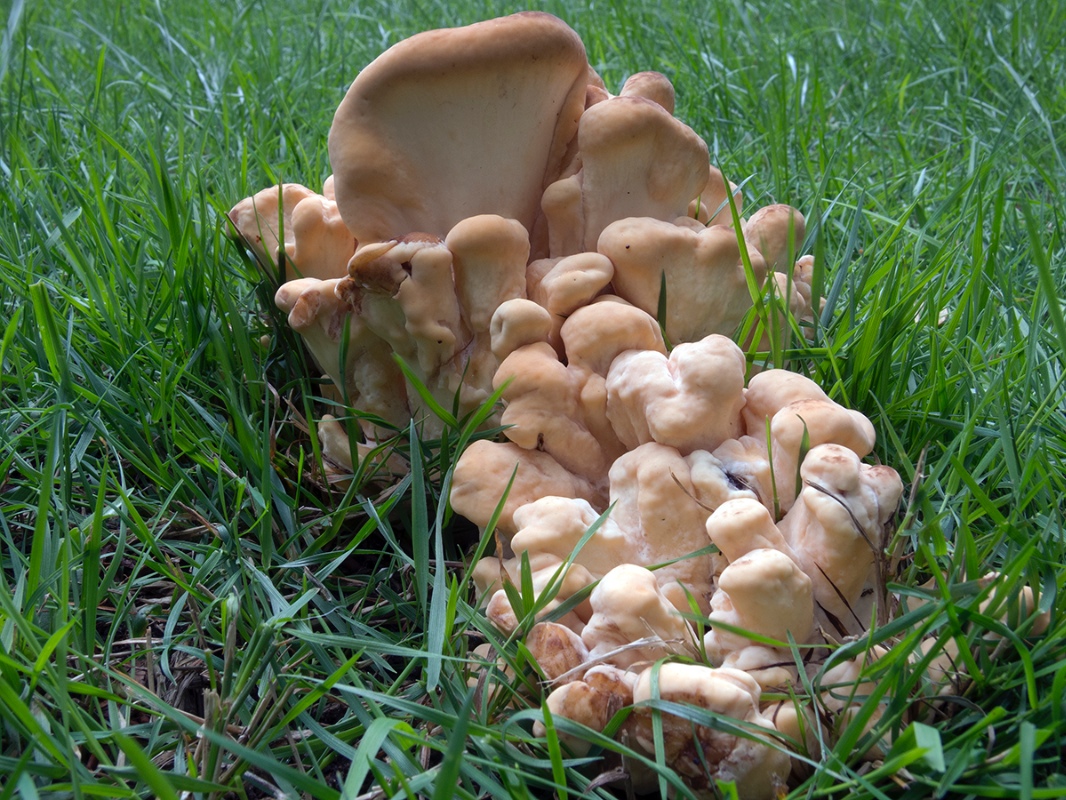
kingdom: Fungi
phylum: Basidiomycota
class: Agaricomycetes
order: Polyporales
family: Meripilaceae
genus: Meripilus
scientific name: Meripilus giganteus
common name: kæmpeporesvamp
